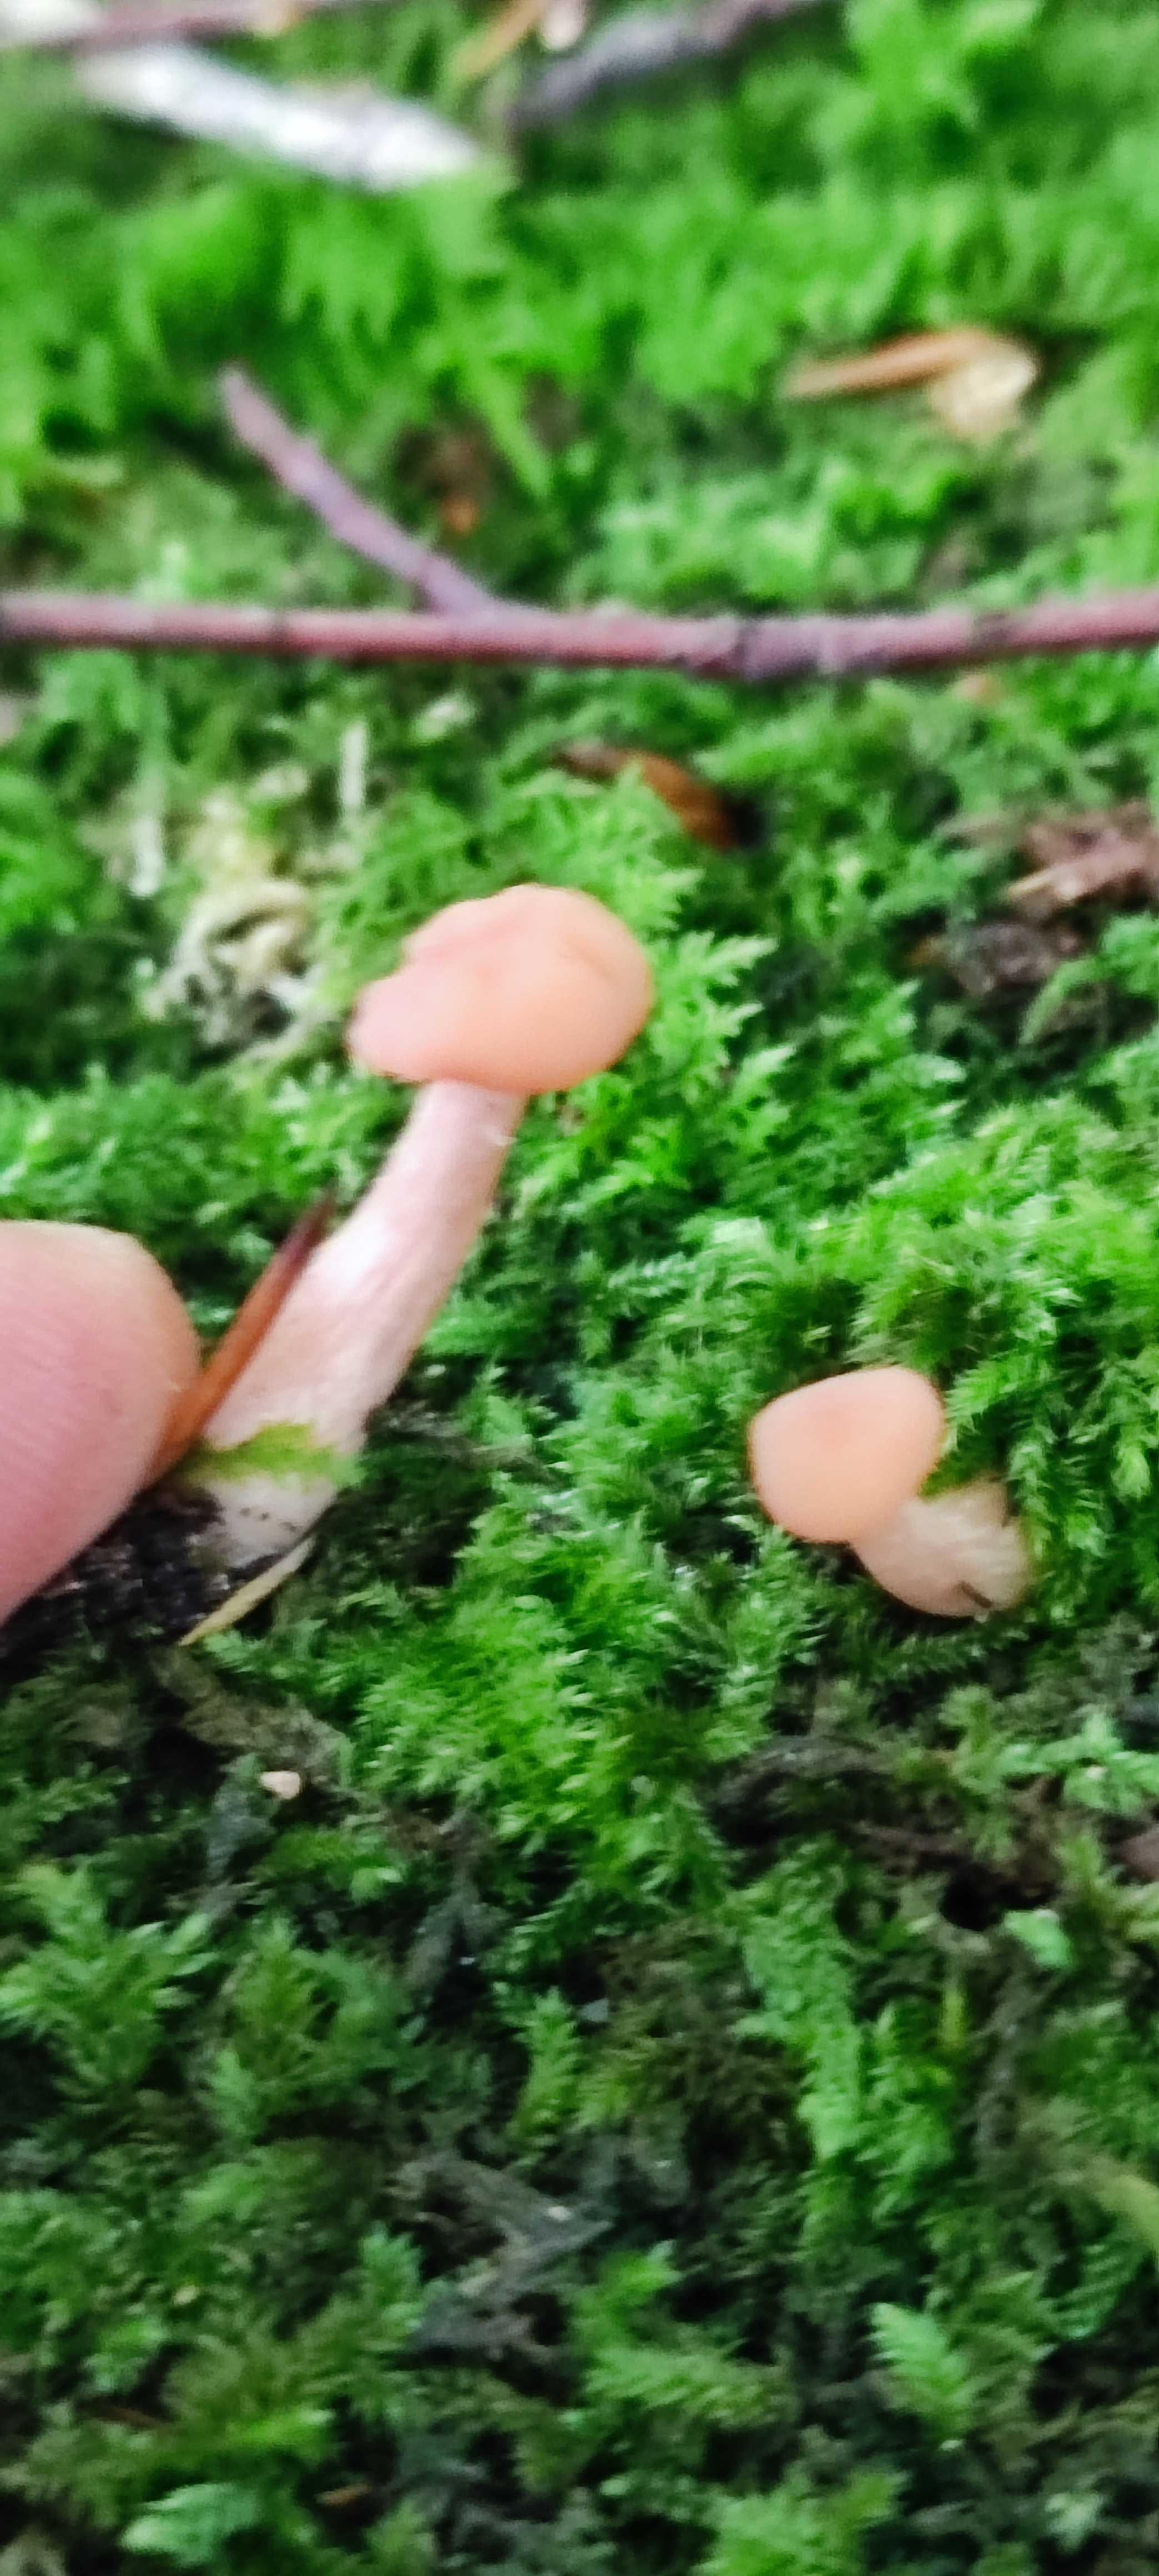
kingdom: Fungi
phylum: Basidiomycota
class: Agaricomycetes
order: Agaricales
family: Hydnangiaceae
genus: Laccaria
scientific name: Laccaria laccata
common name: rød ametysthat
